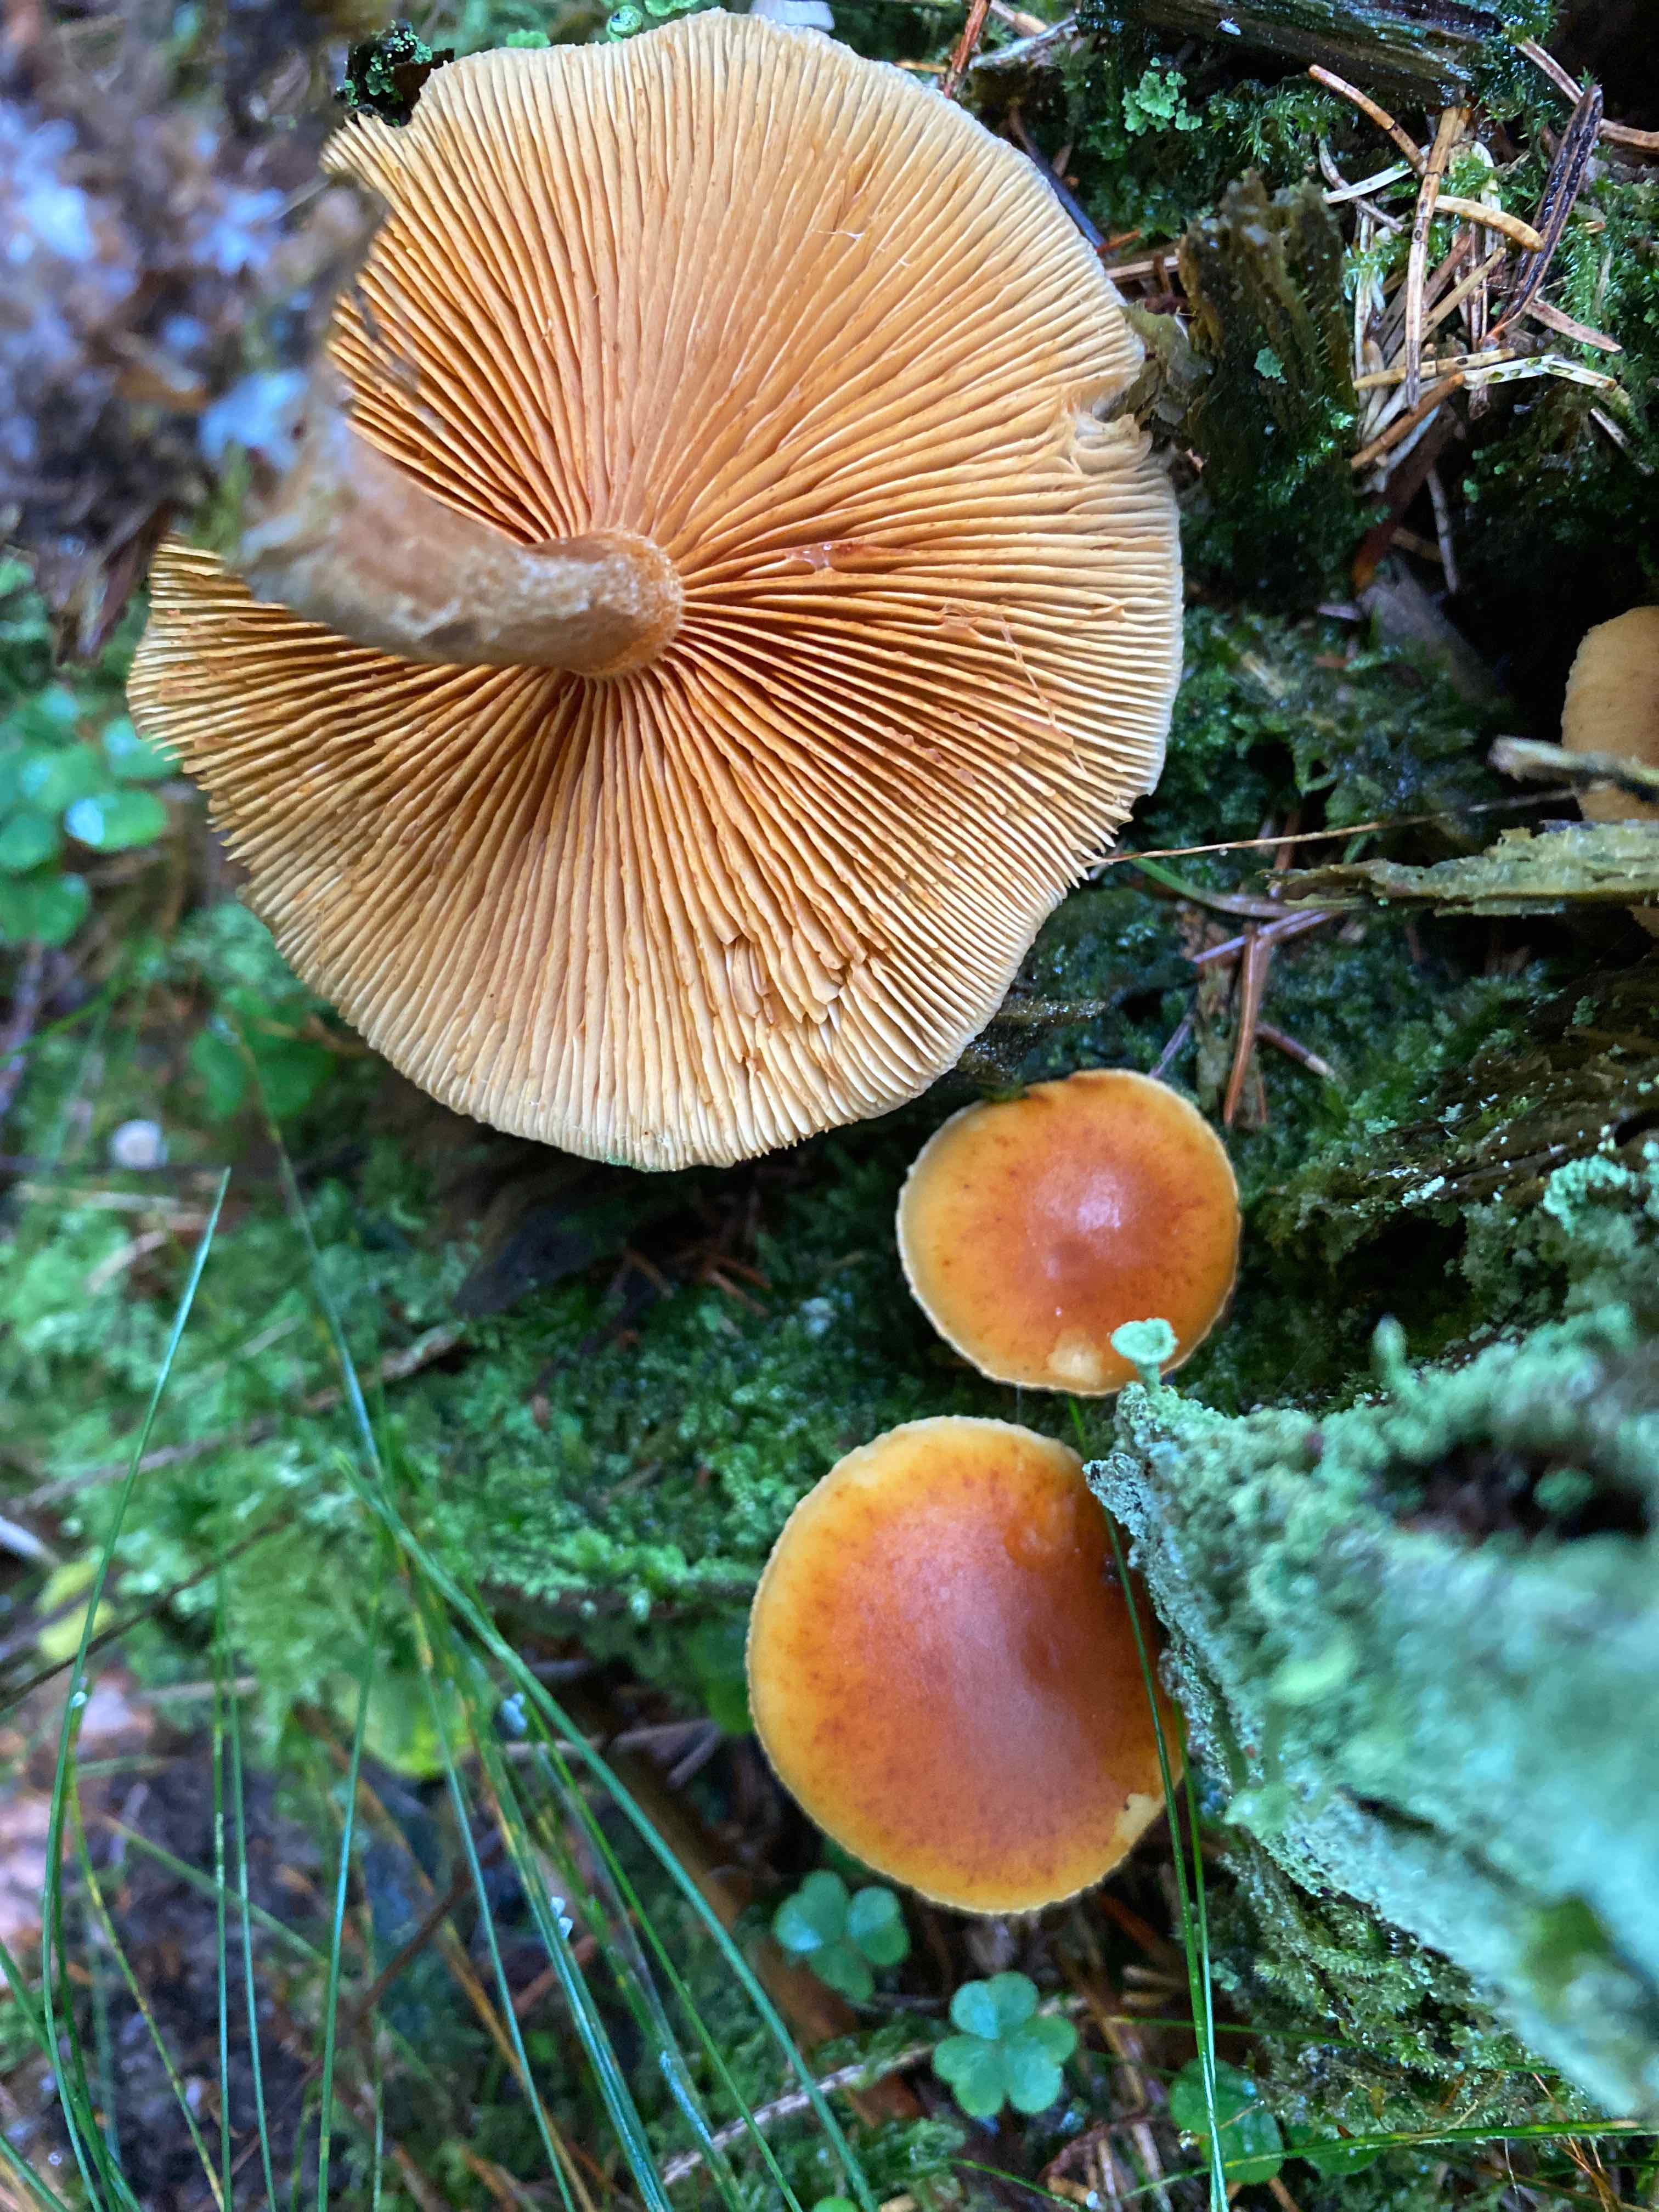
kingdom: Fungi
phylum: Basidiomycota
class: Agaricomycetes
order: Agaricales
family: Hymenogastraceae
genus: Gymnopilus
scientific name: Gymnopilus penetrans
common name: plettet flammehat
